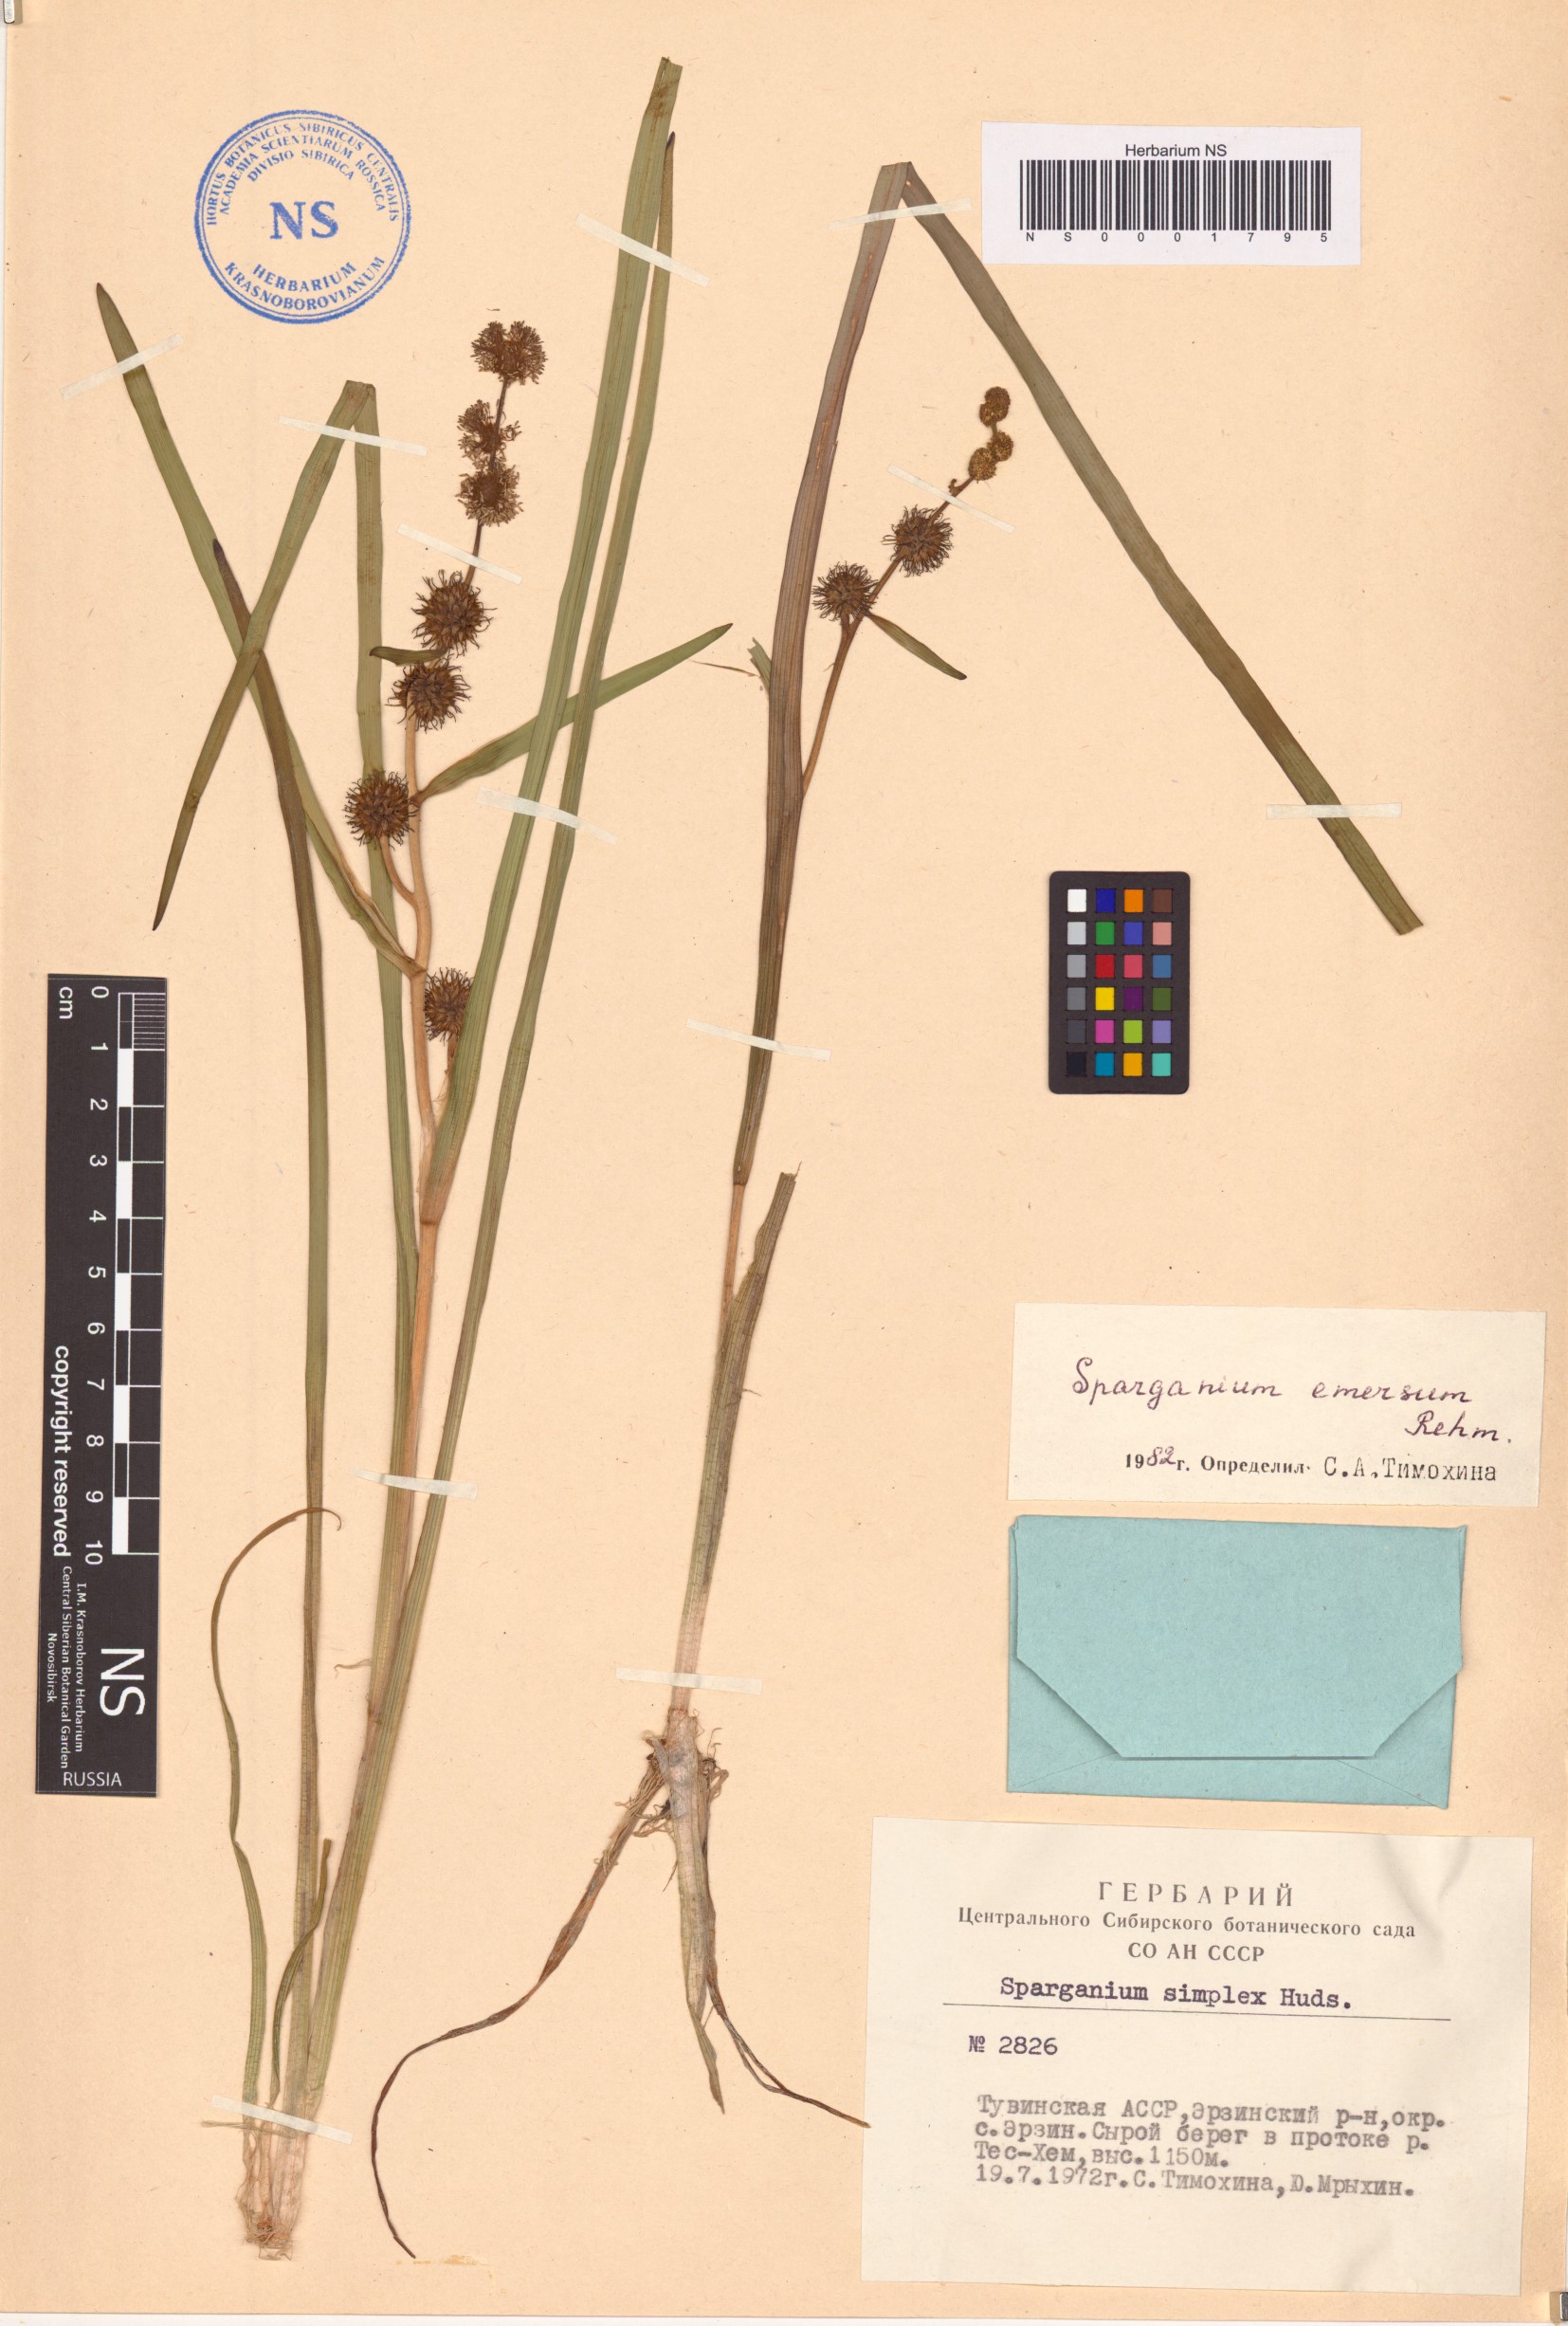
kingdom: Plantae
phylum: Tracheophyta
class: Liliopsida
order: Poales
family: Typhaceae
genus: Sparganium
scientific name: Sparganium emersum
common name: Unbranched bur-reed
